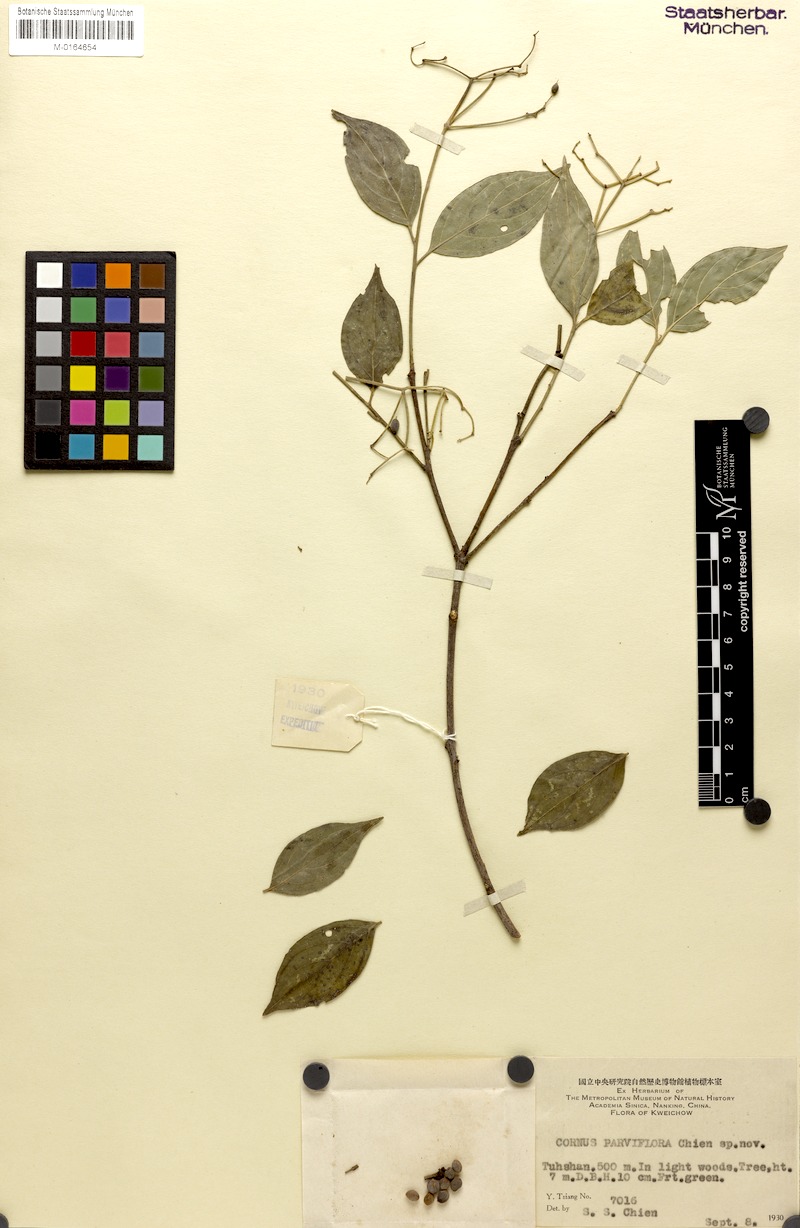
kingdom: Plantae
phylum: Tracheophyta
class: Magnoliopsida
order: Cornales
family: Cornaceae
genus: Cornus
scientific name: Cornus parviflora
